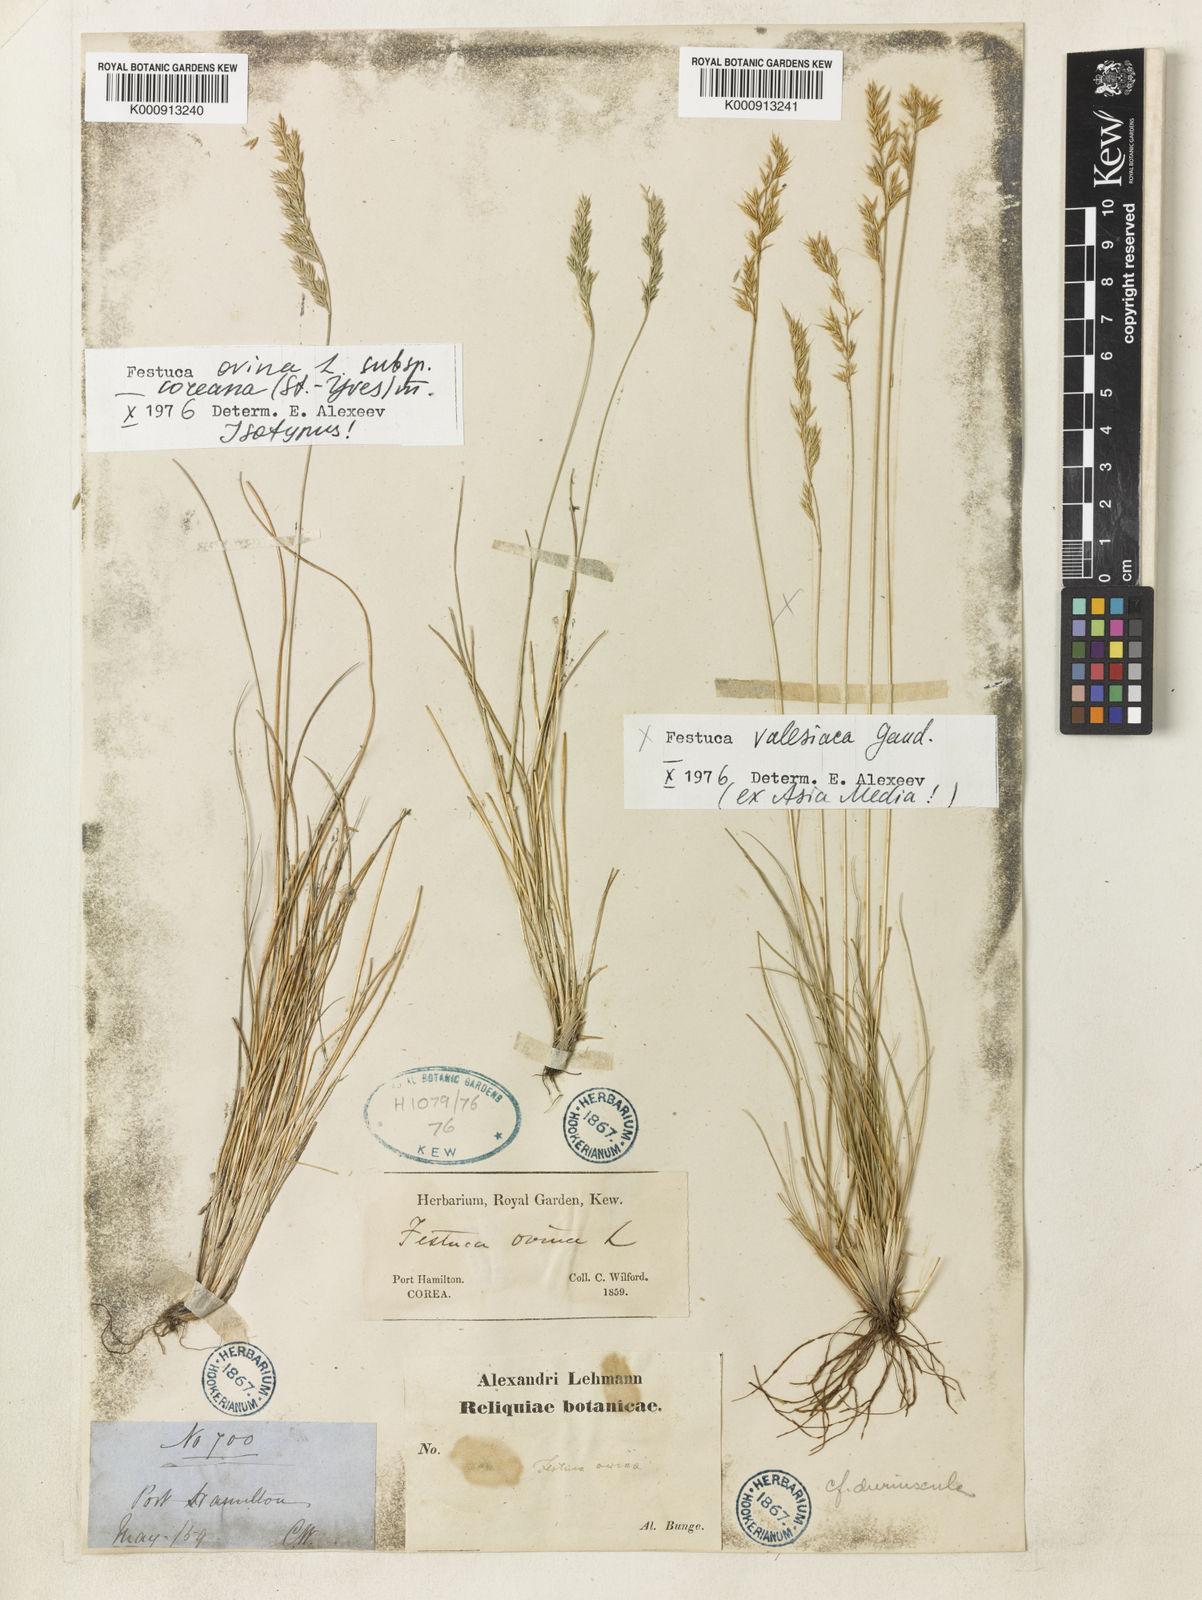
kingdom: Plantae
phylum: Tracheophyta
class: Liliopsida
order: Poales
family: Poaceae
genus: Festuca
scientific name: Festuca ovina
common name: Sheep fescue
